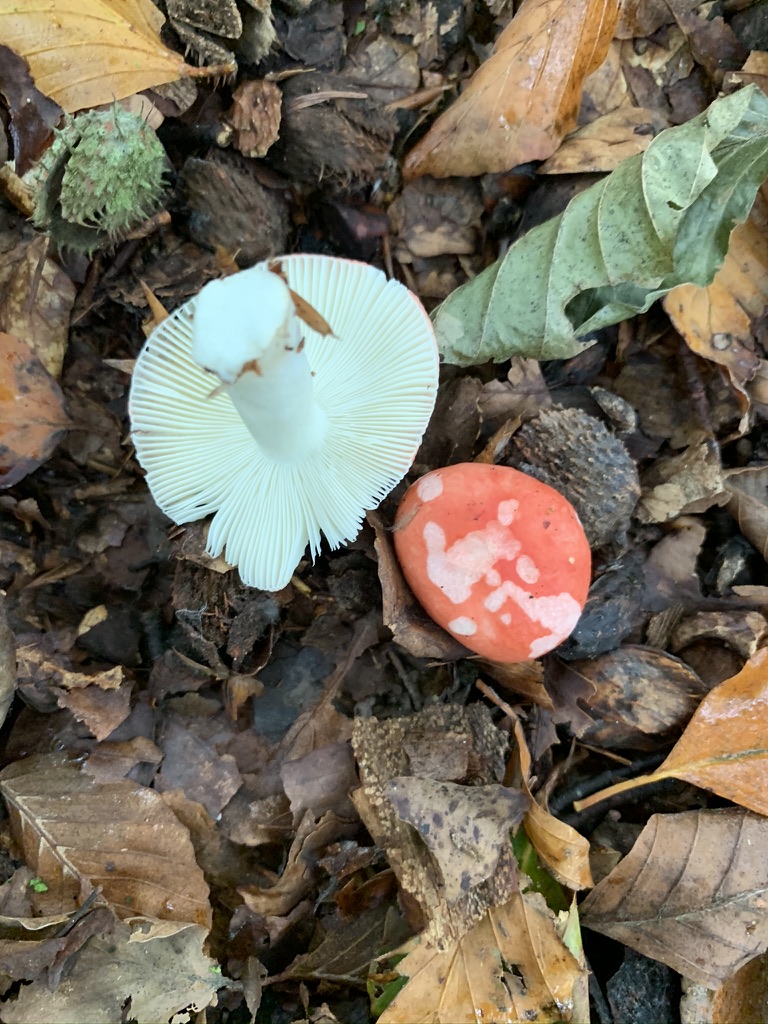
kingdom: Fungi
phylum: Basidiomycota
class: Agaricomycetes
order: Russulales
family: Russulaceae
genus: Russula
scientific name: Russula nobilis
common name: lille gift-skørhat
